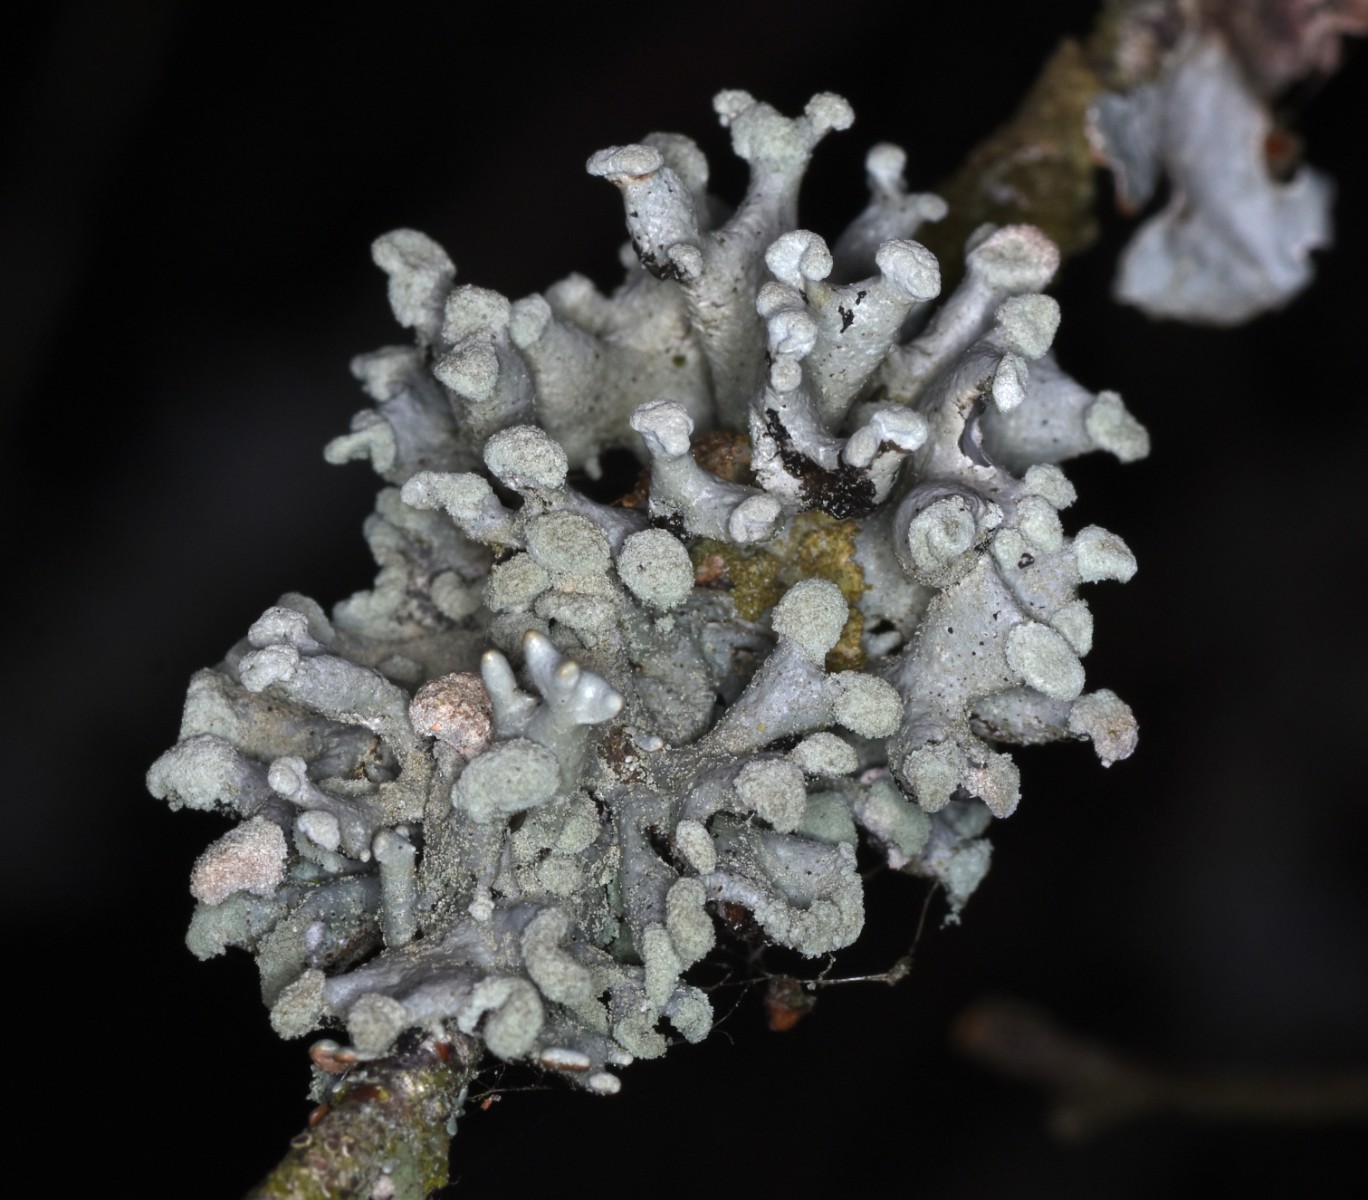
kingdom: Fungi
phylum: Ascomycota
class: Lecanoromycetes
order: Lecanorales
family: Parmeliaceae
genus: Hypogymnia
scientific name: Hypogymnia tubulosa
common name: finger-kvistlav
